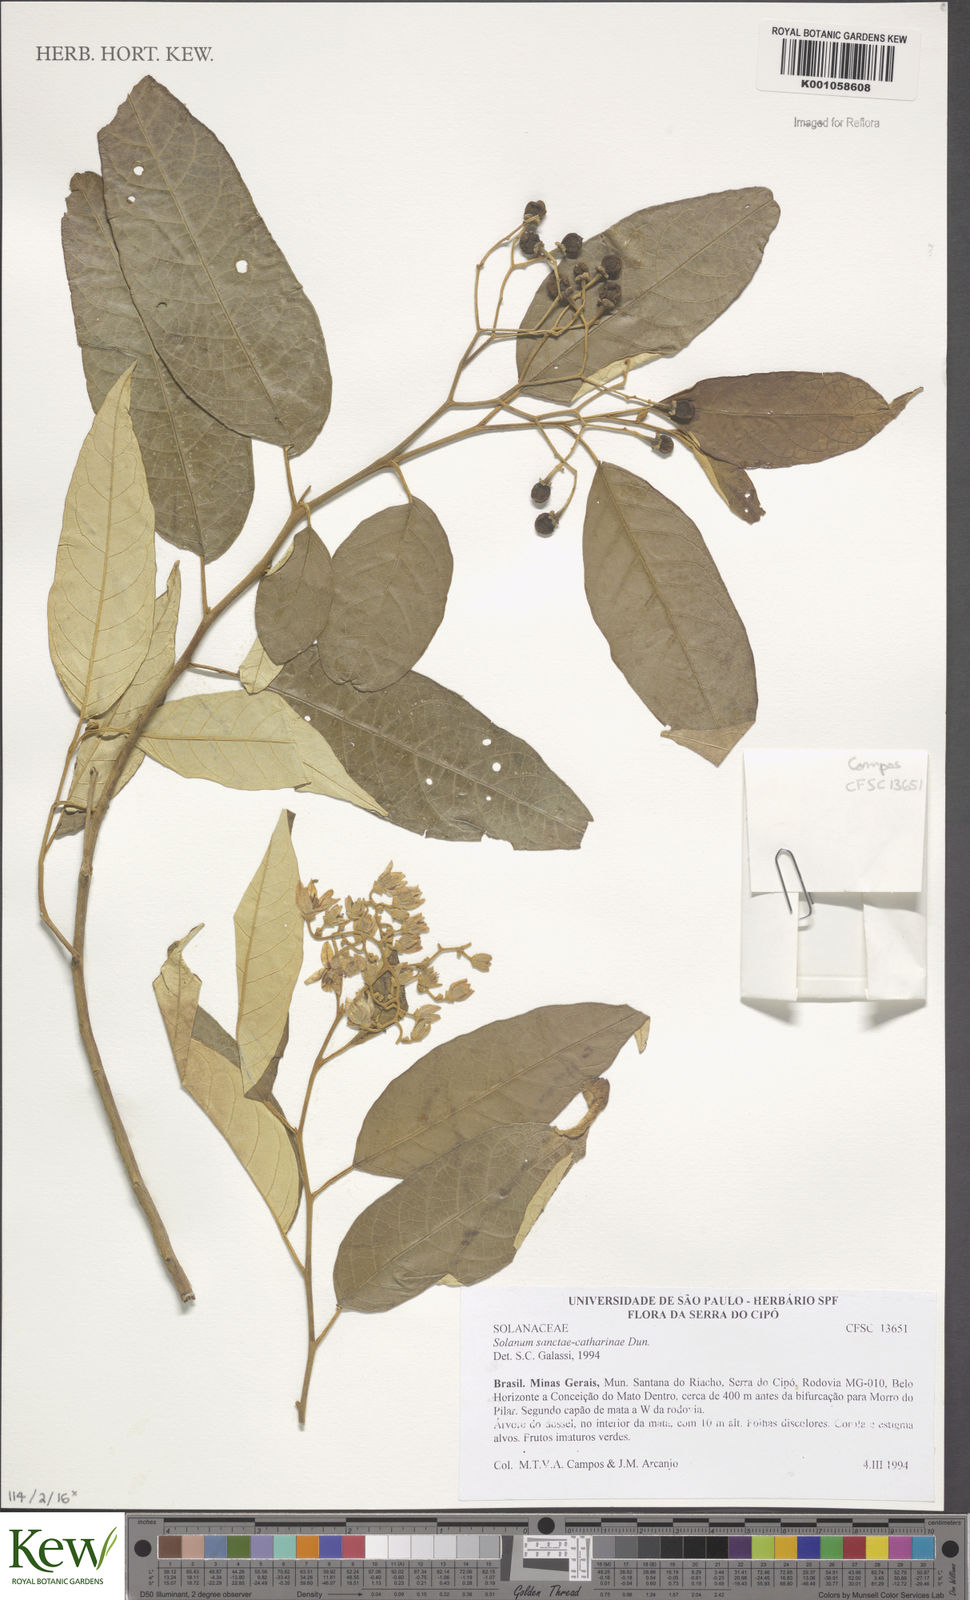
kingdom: Plantae
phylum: Tracheophyta
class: Magnoliopsida
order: Solanales
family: Solanaceae
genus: Solanum
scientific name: Solanum sanctae-catharinae
